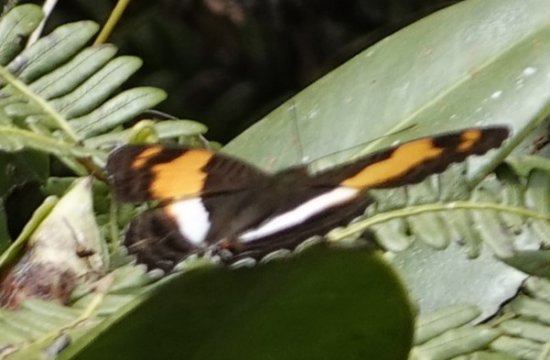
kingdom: Animalia
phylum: Arthropoda
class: Insecta
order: Lepidoptera
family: Nymphalidae
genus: Limenitis
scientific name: Limenitis Adelpha erotia
